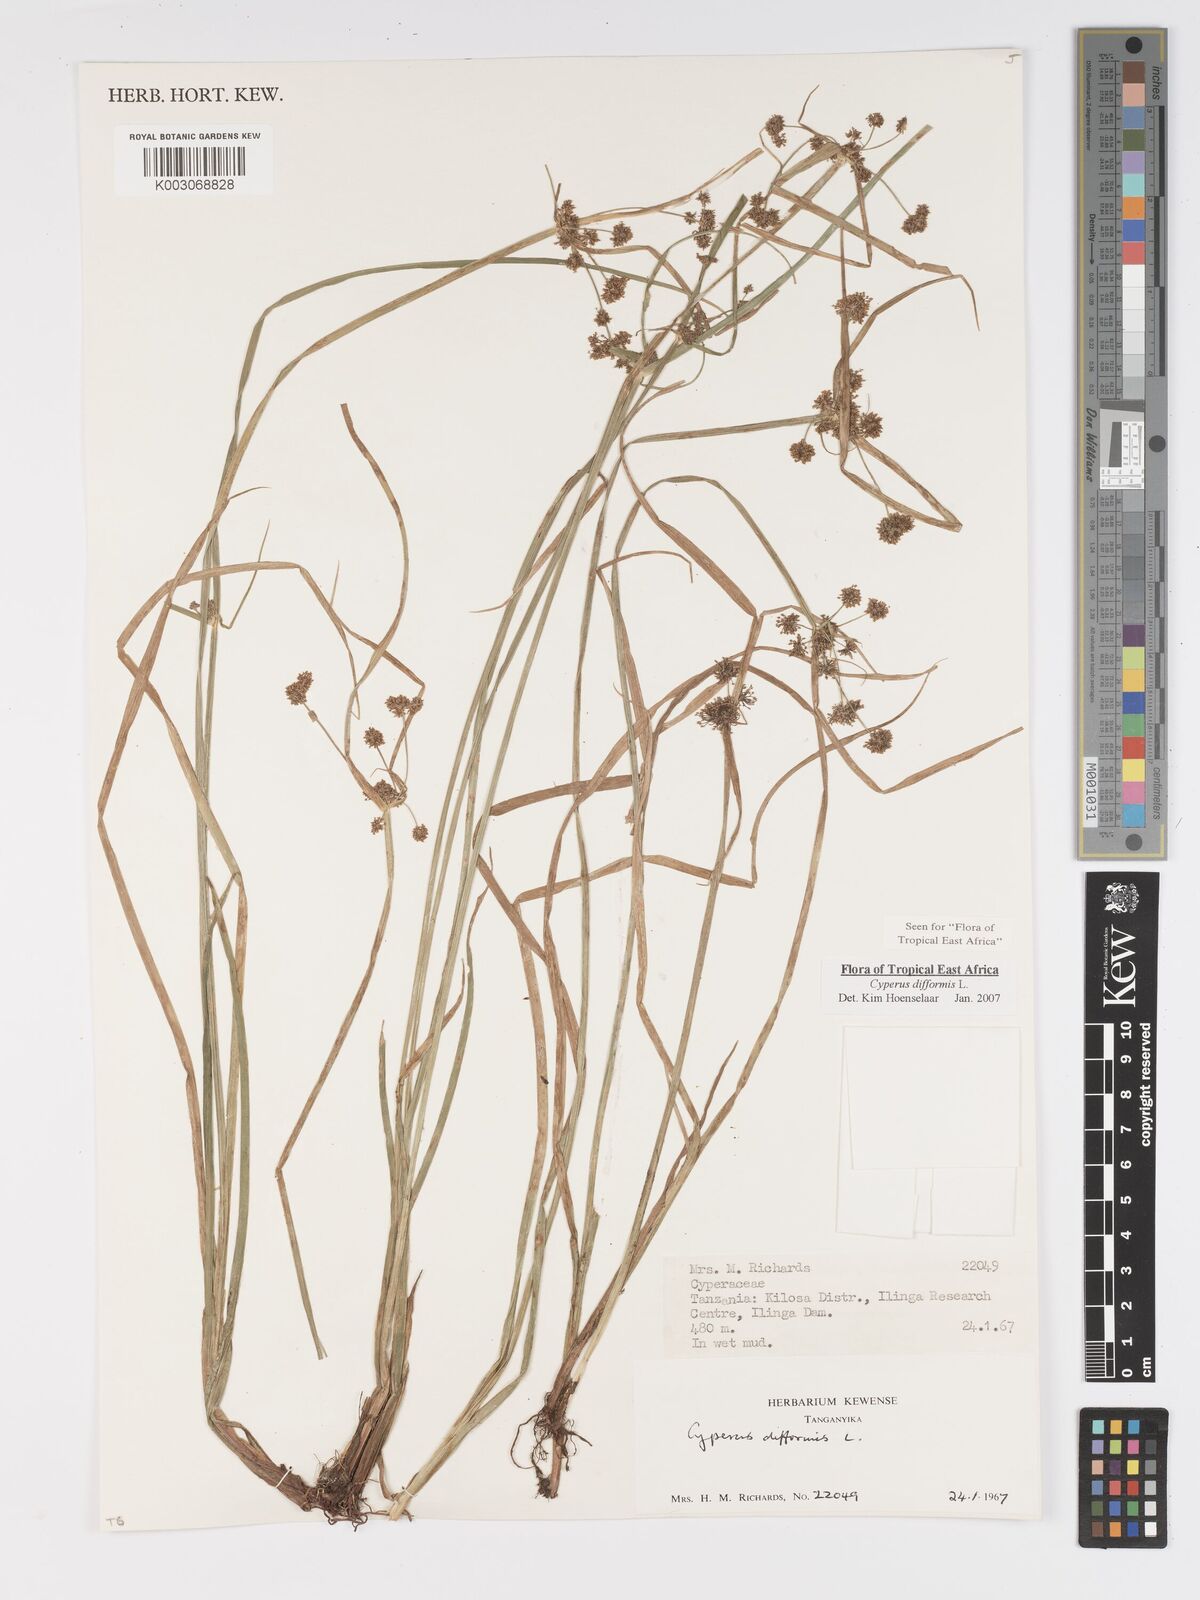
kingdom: Plantae
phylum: Tracheophyta
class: Liliopsida
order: Poales
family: Cyperaceae
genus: Cyperus
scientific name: Cyperus difformis
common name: Variable flatsedge
